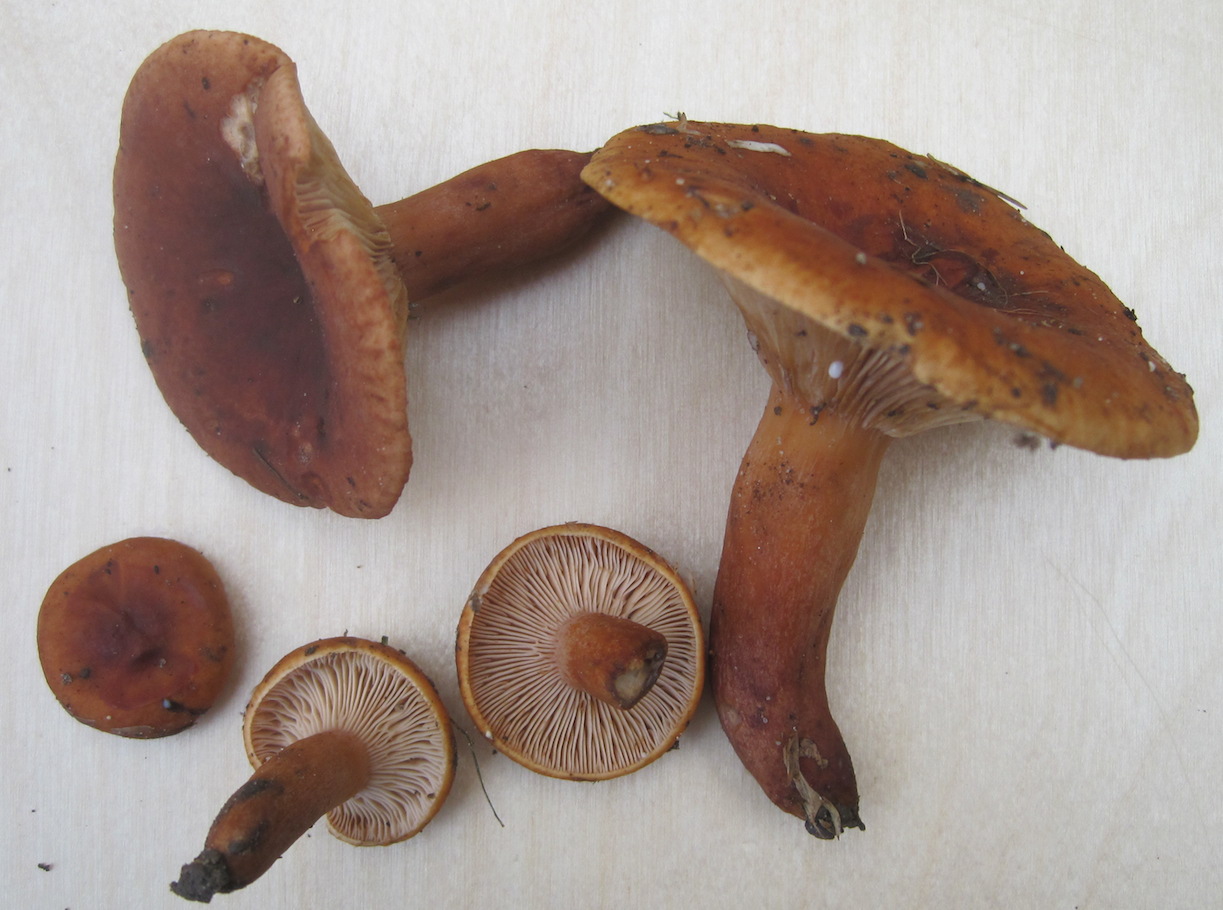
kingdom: Fungi
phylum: Basidiomycota
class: Agaricomycetes
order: Russulales
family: Russulaceae
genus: Lactarius
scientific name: Lactarius fulvissimus
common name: ræve-mælkehat
